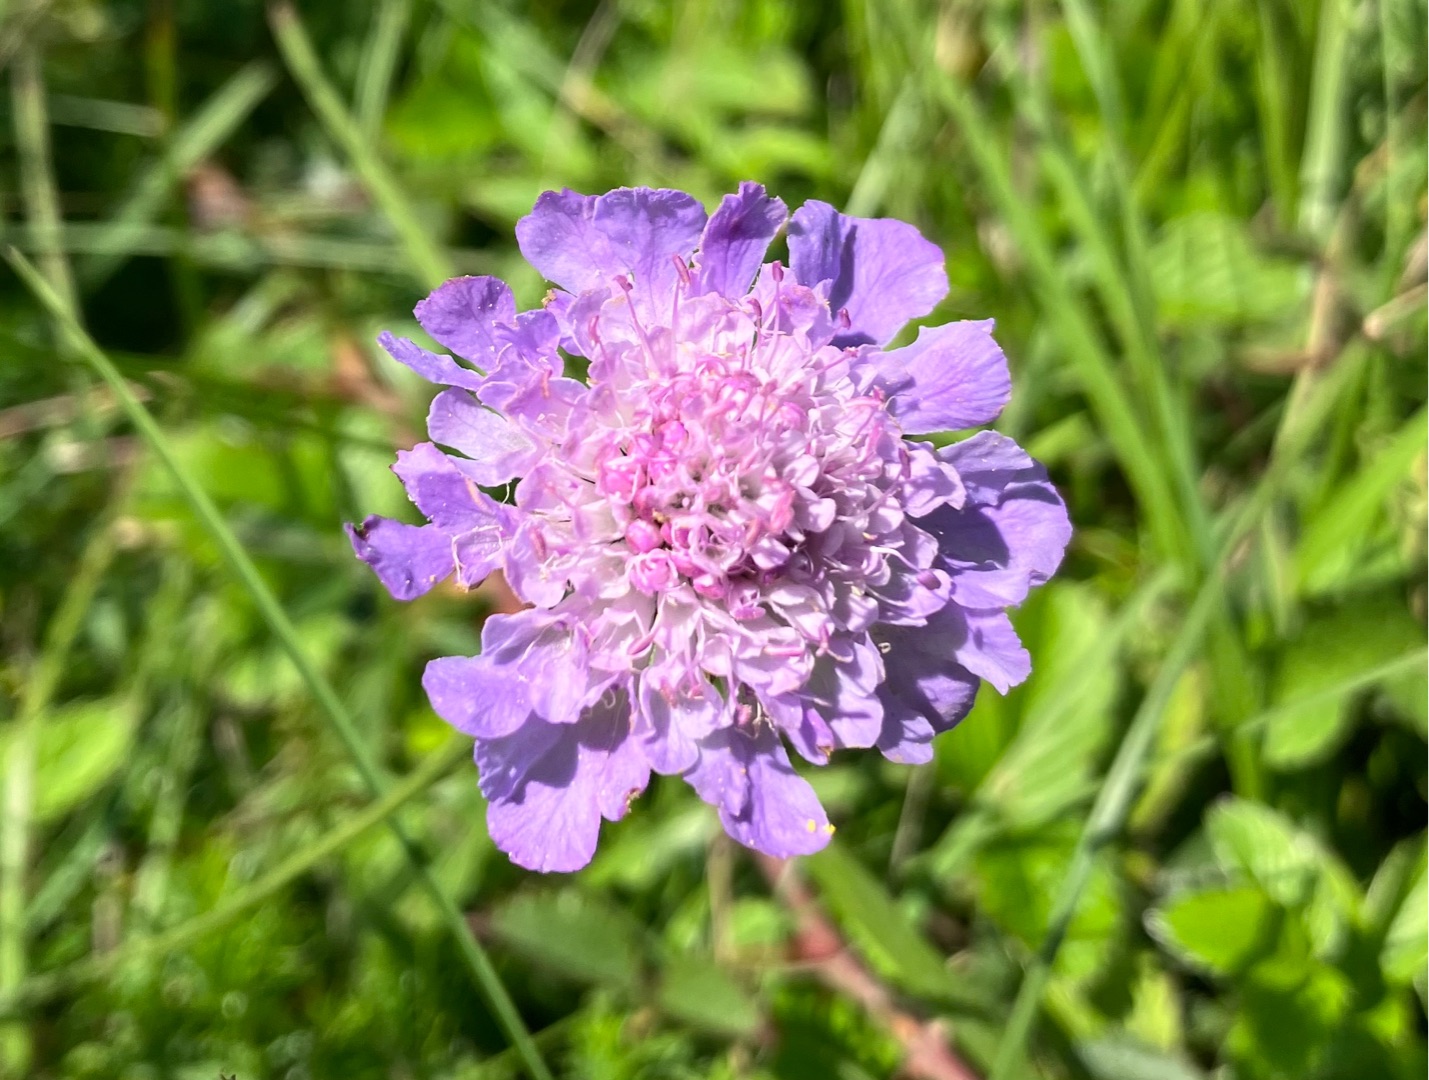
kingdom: Plantae
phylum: Tracheophyta
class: Magnoliopsida
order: Dipsacales
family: Caprifoliaceae
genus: Scabiosa
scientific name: Scabiosa columbaria
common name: Due-skabiose
